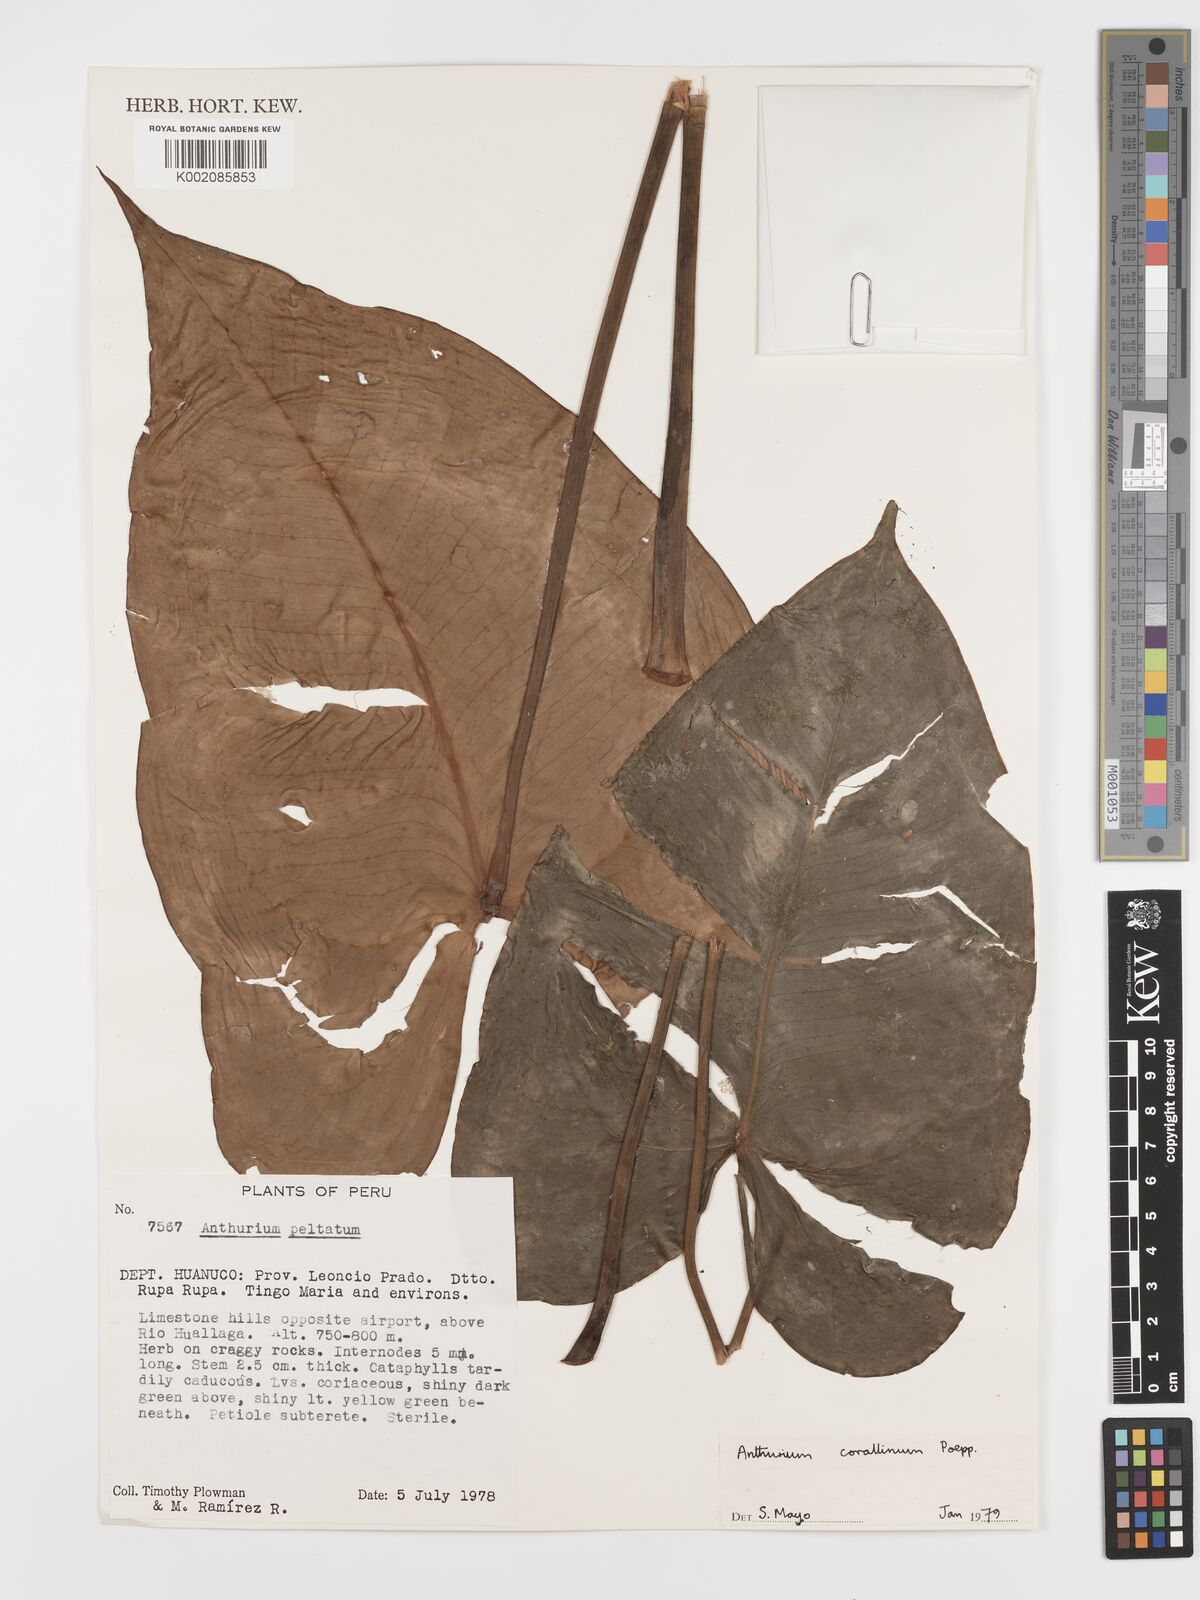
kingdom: Plantae
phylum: Tracheophyta
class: Liliopsida
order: Alismatales
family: Araceae
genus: Anthurium
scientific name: Anthurium corallinum
